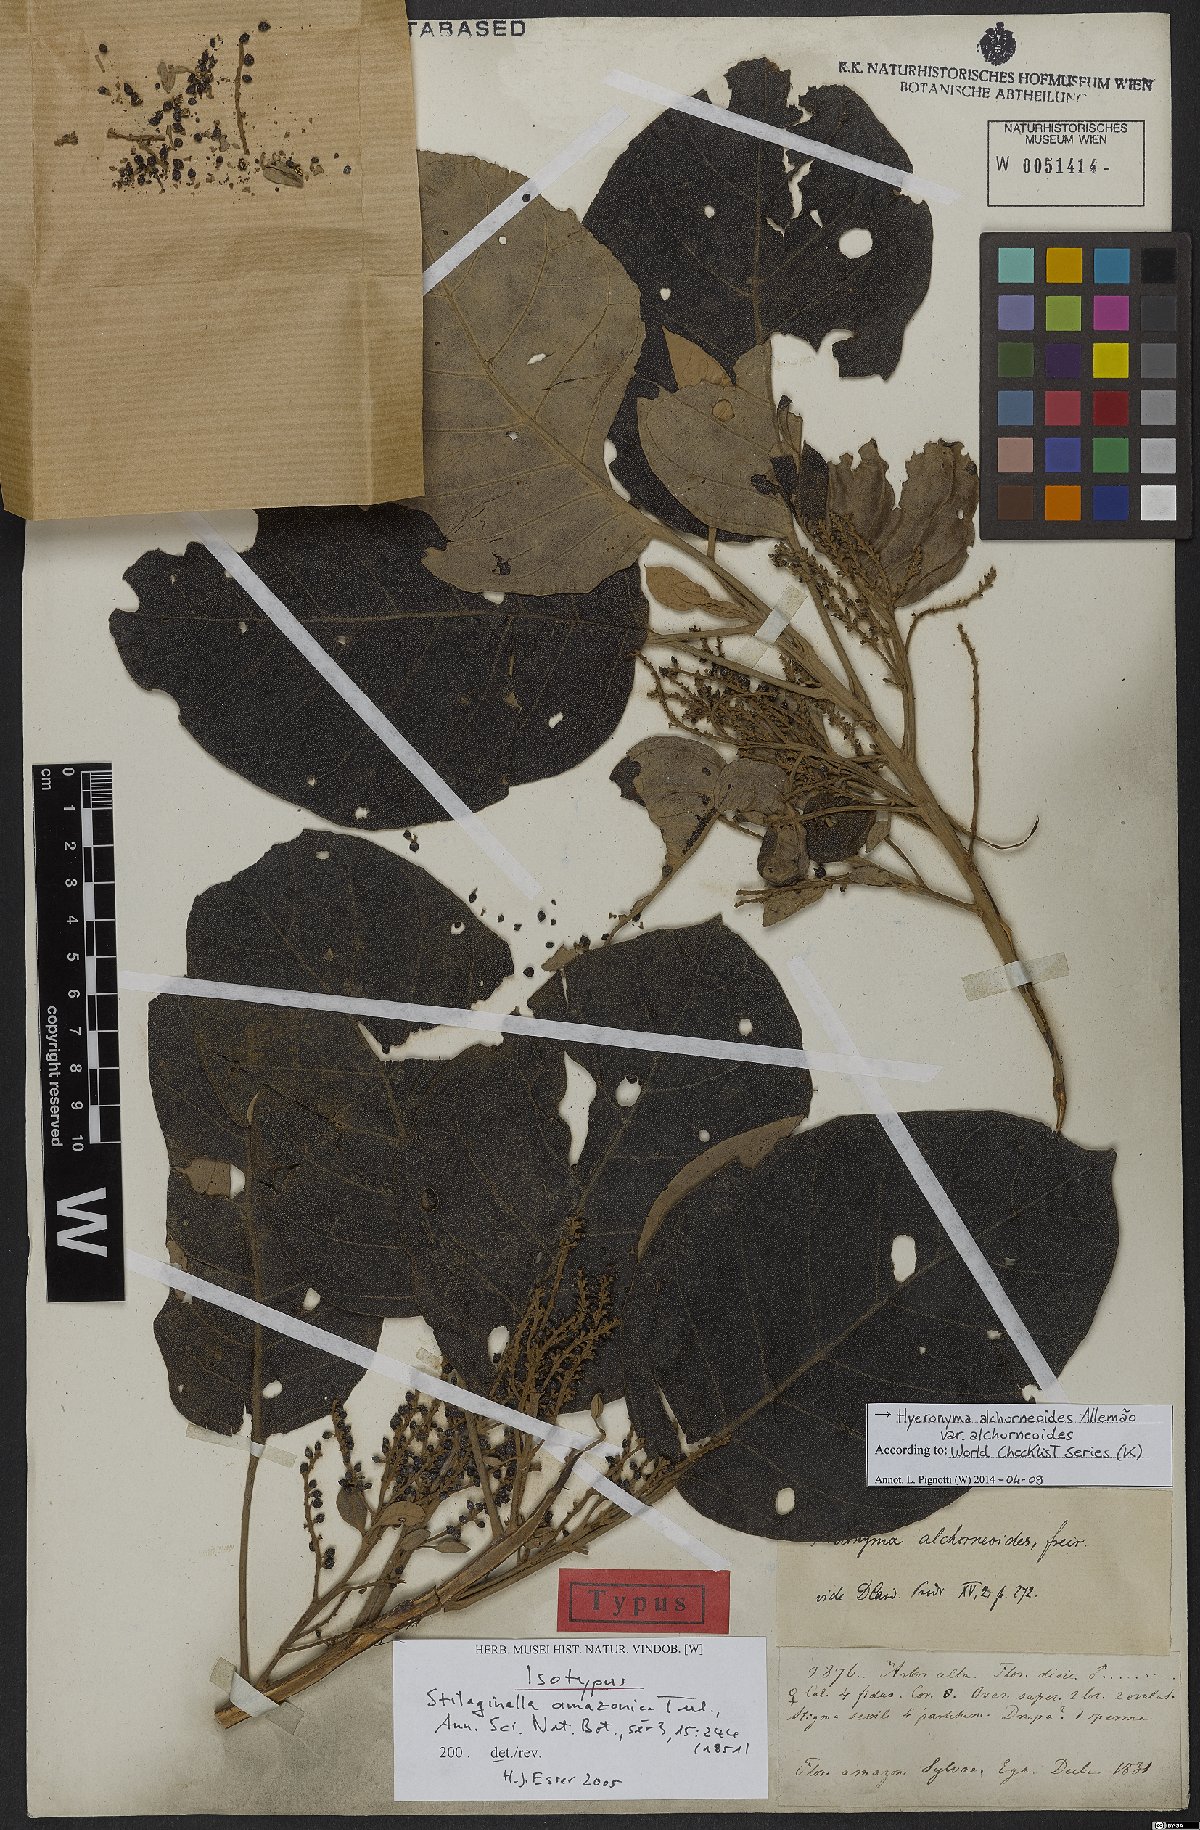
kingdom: Plantae
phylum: Tracheophyta
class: Magnoliopsida
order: Malpighiales
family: Phyllanthaceae
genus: Hieronyma
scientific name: Hieronyma alchorneoides
